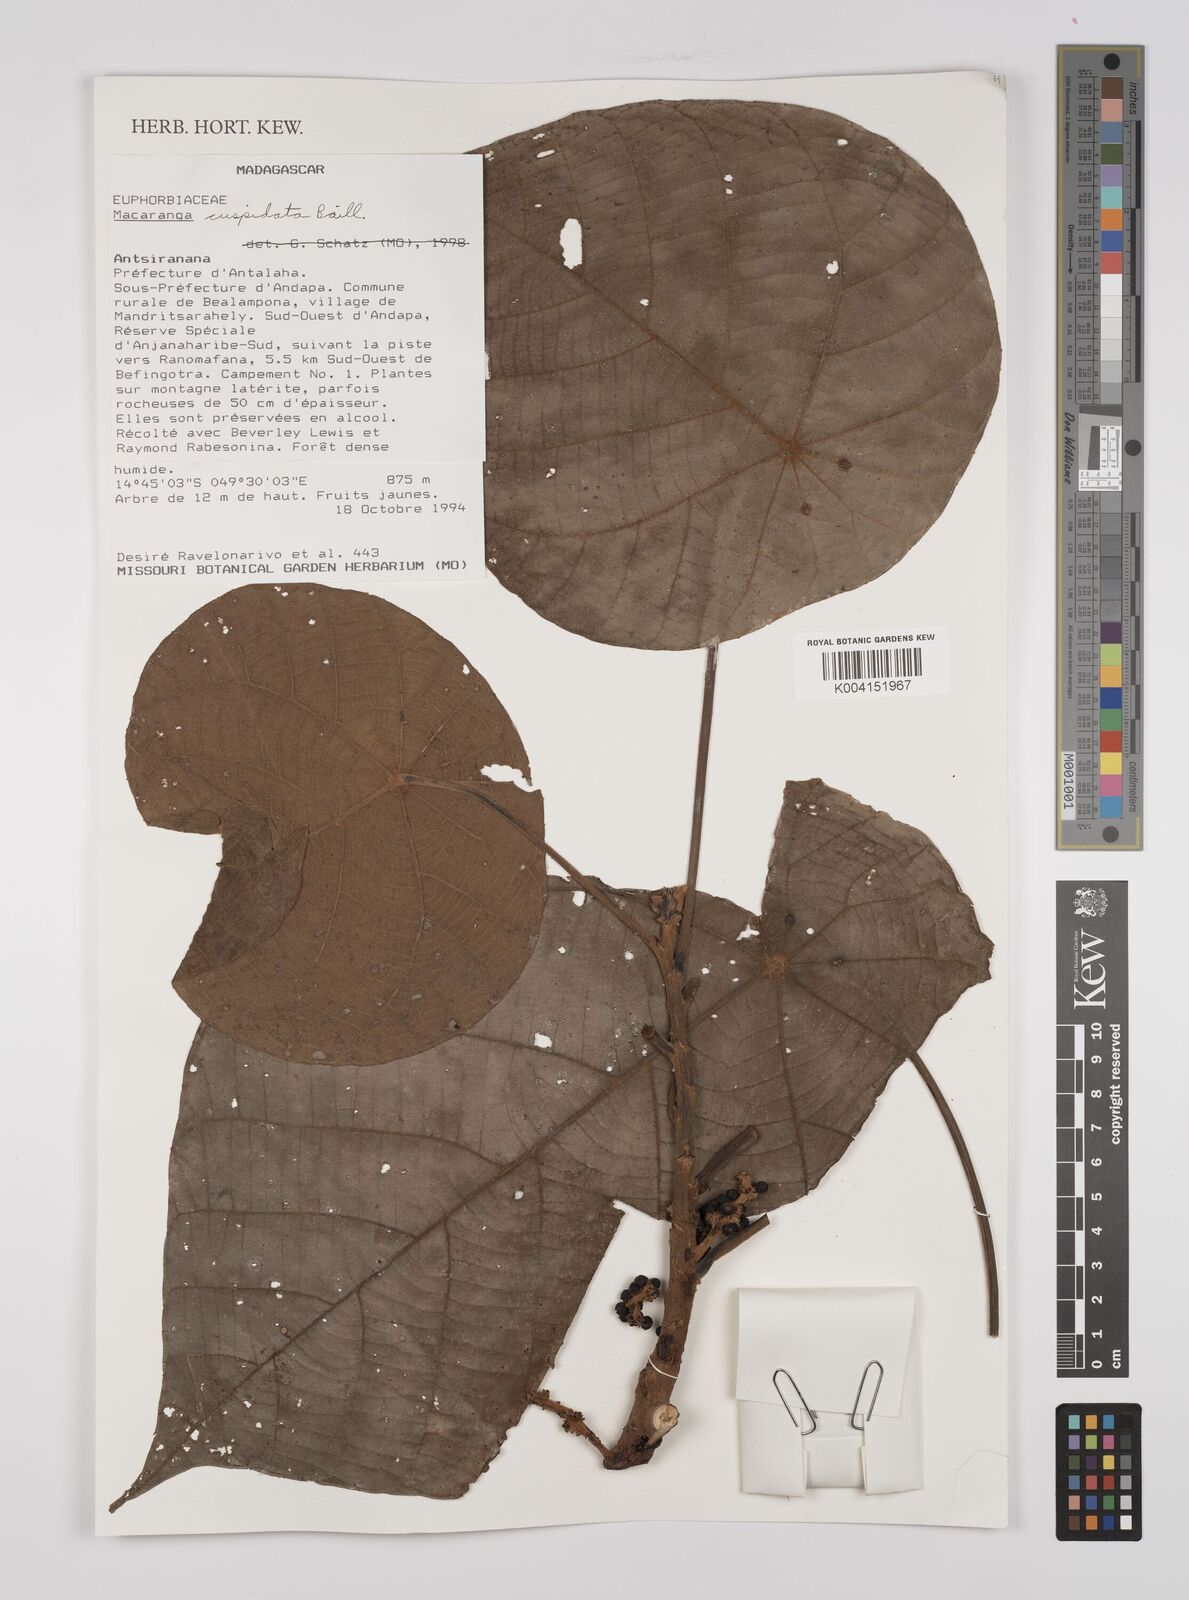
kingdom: Plantae
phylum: Tracheophyta
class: Magnoliopsida
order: Malpighiales
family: Euphorbiaceae
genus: Macaranga
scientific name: Macaranga cuspidata
